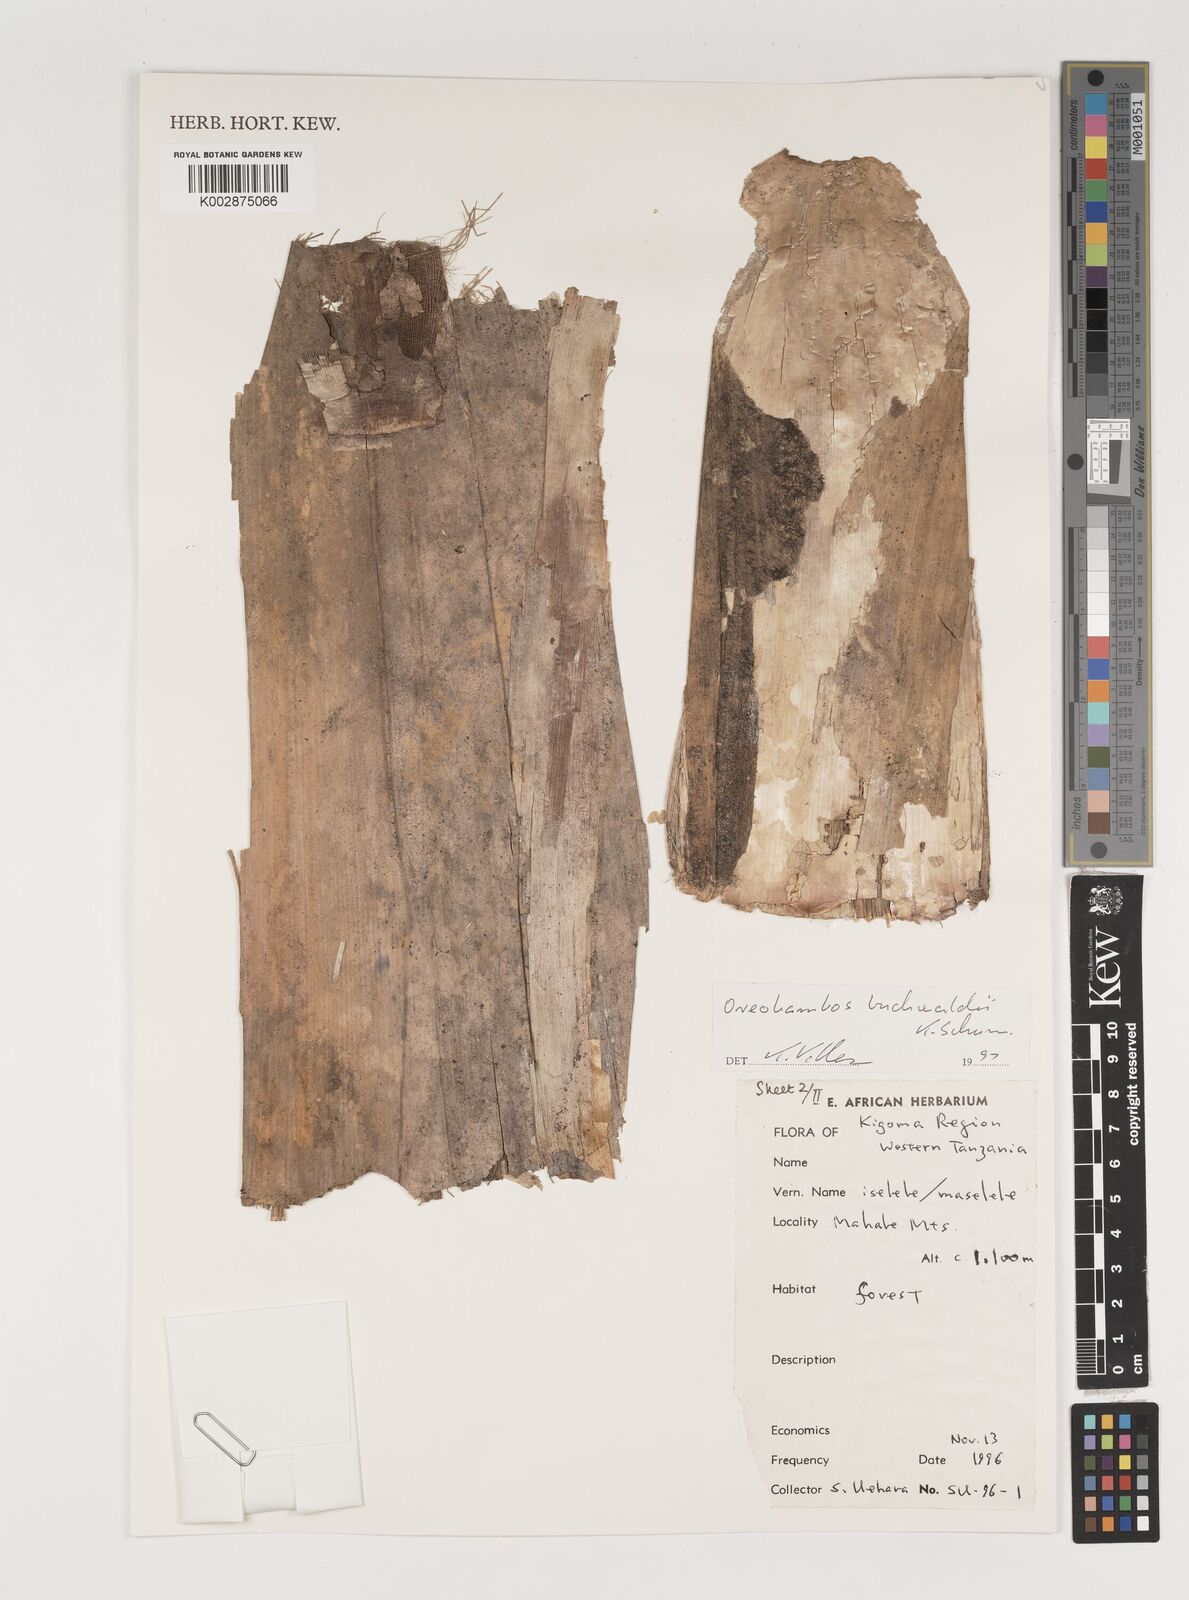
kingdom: Plantae
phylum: Tracheophyta
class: Liliopsida
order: Poales
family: Poaceae
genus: Oreobambos
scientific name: Oreobambos buchwaldii
